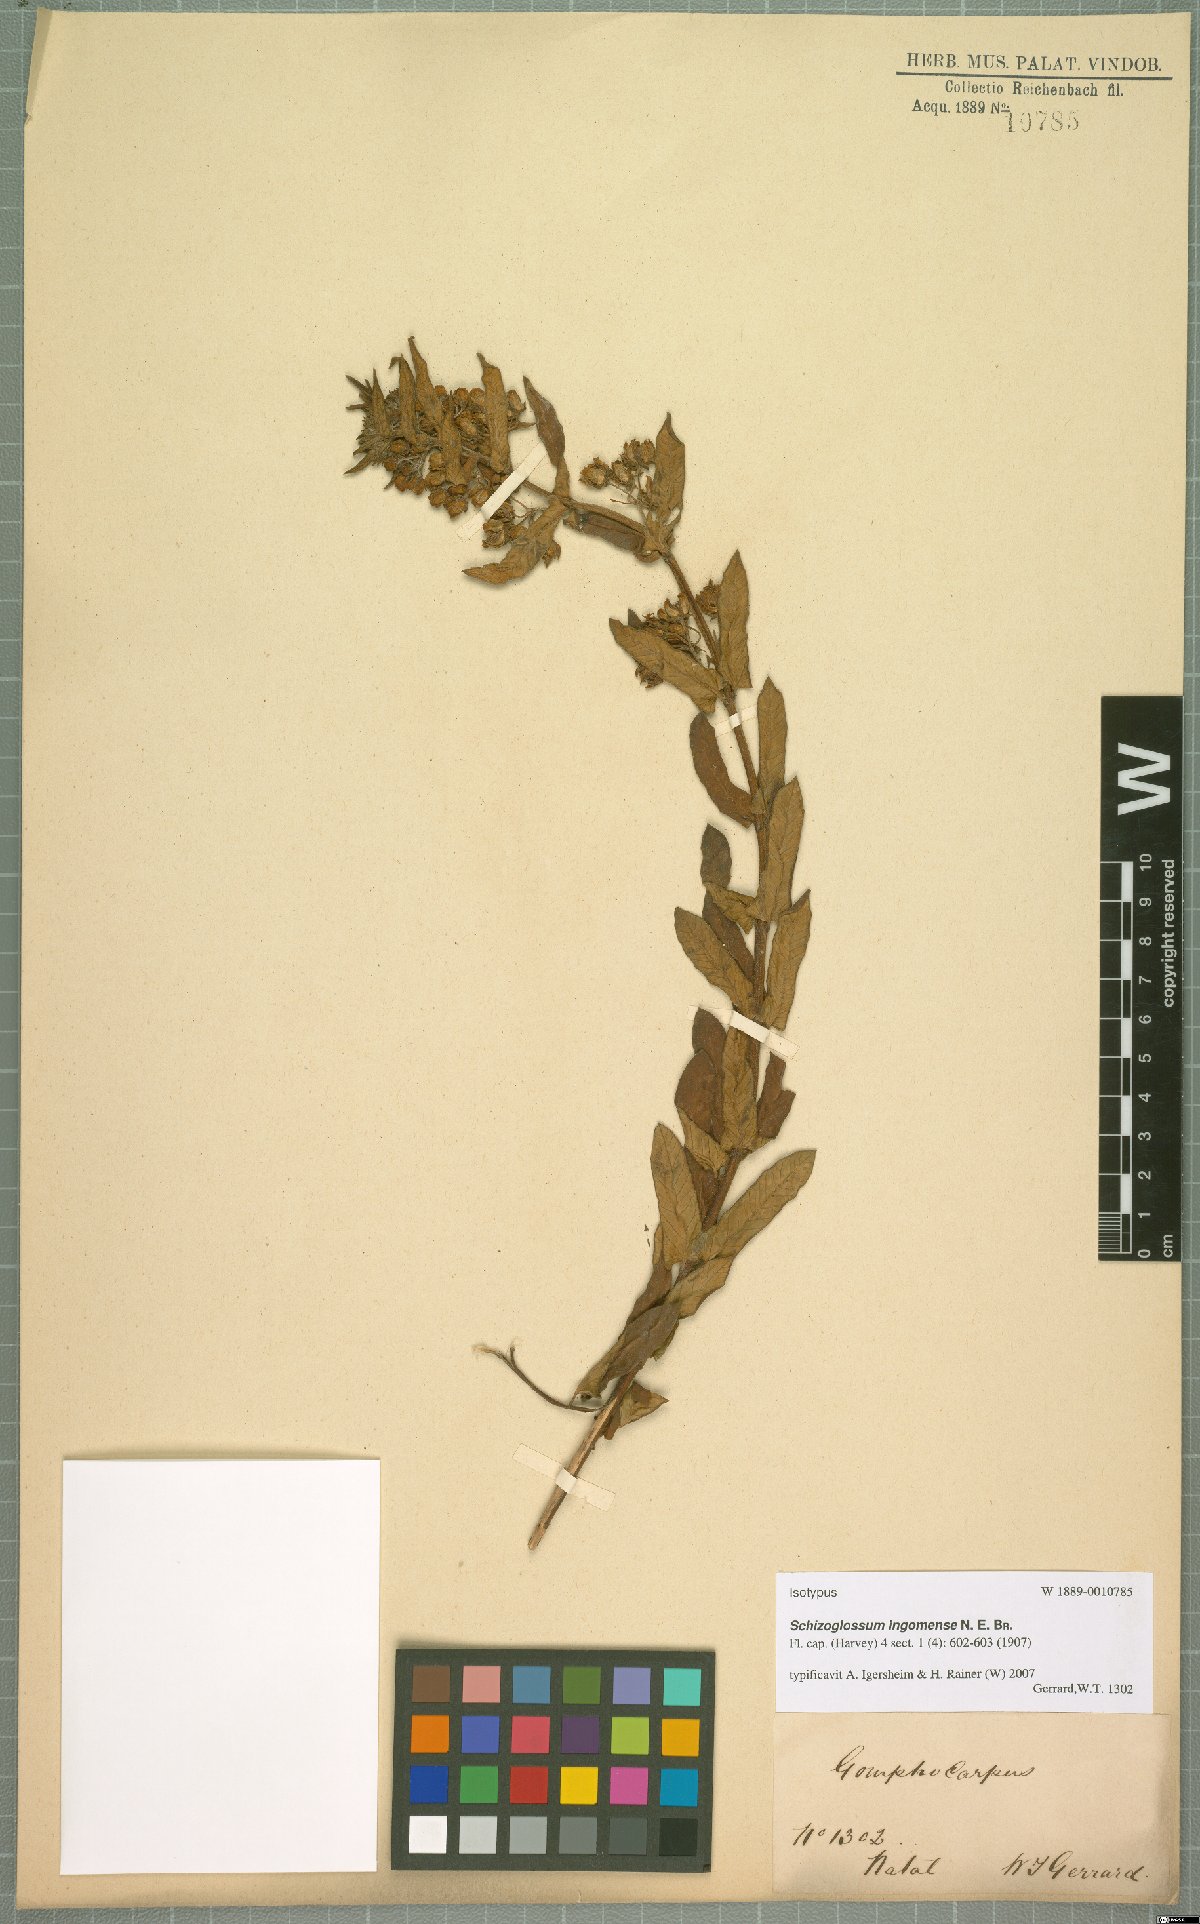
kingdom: Plantae
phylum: Tracheophyta
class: Magnoliopsida
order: Gentianales
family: Apocynaceae
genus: Schizoglossum
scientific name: Schizoglossum ingomense
